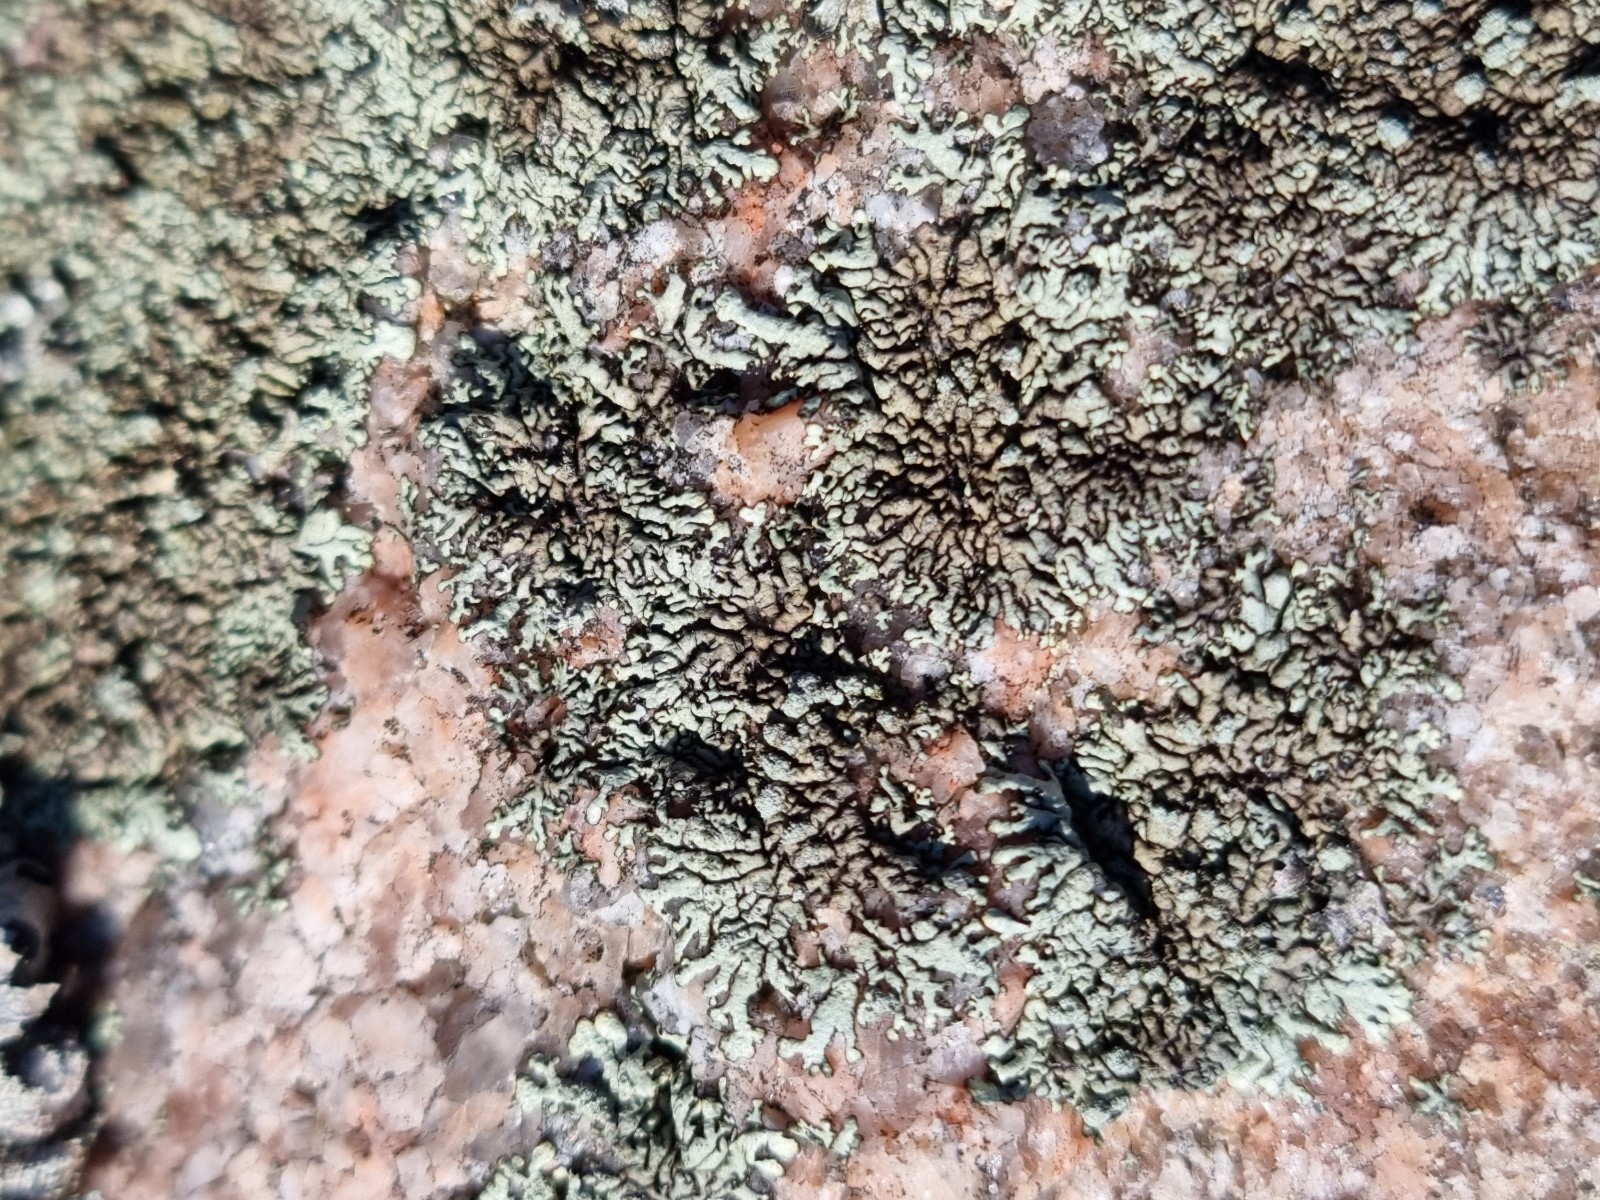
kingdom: Fungi
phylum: Ascomycota
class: Lecanoromycetes
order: Lecanorales
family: Parmeliaceae
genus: Xanthoparmelia
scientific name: Xanthoparmelia mougeotii
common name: liden skållav
